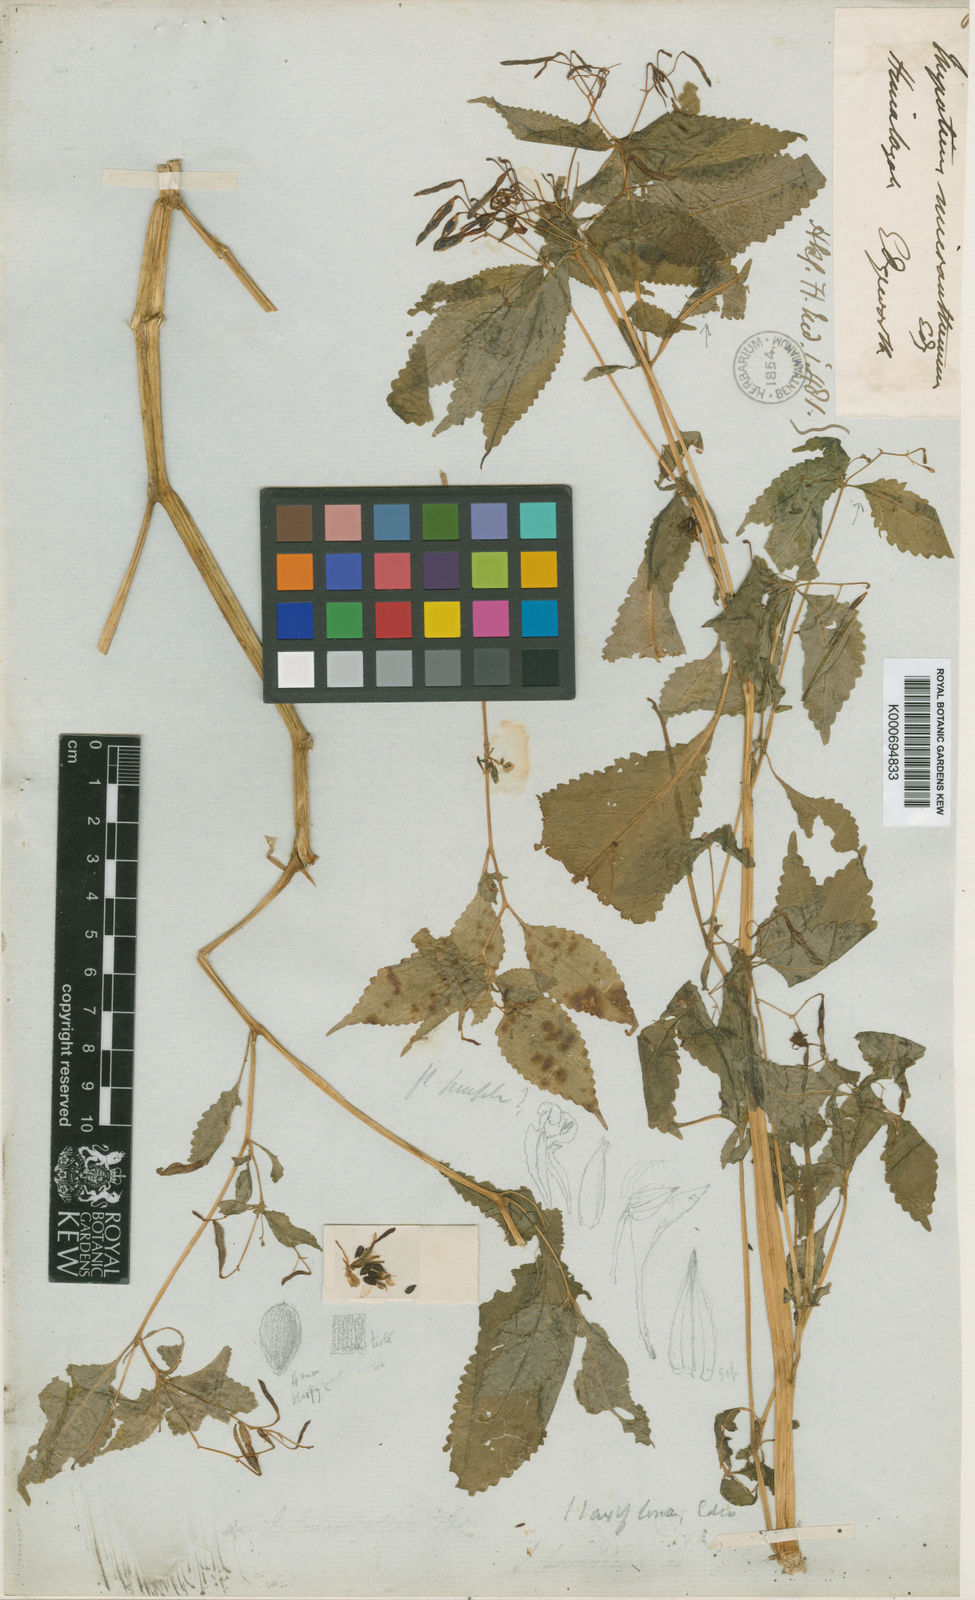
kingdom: Plantae
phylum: Tracheophyta
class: Magnoliopsida
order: Ericales
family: Balsaminaceae
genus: Impatiens
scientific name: Impatiens laxiflora
